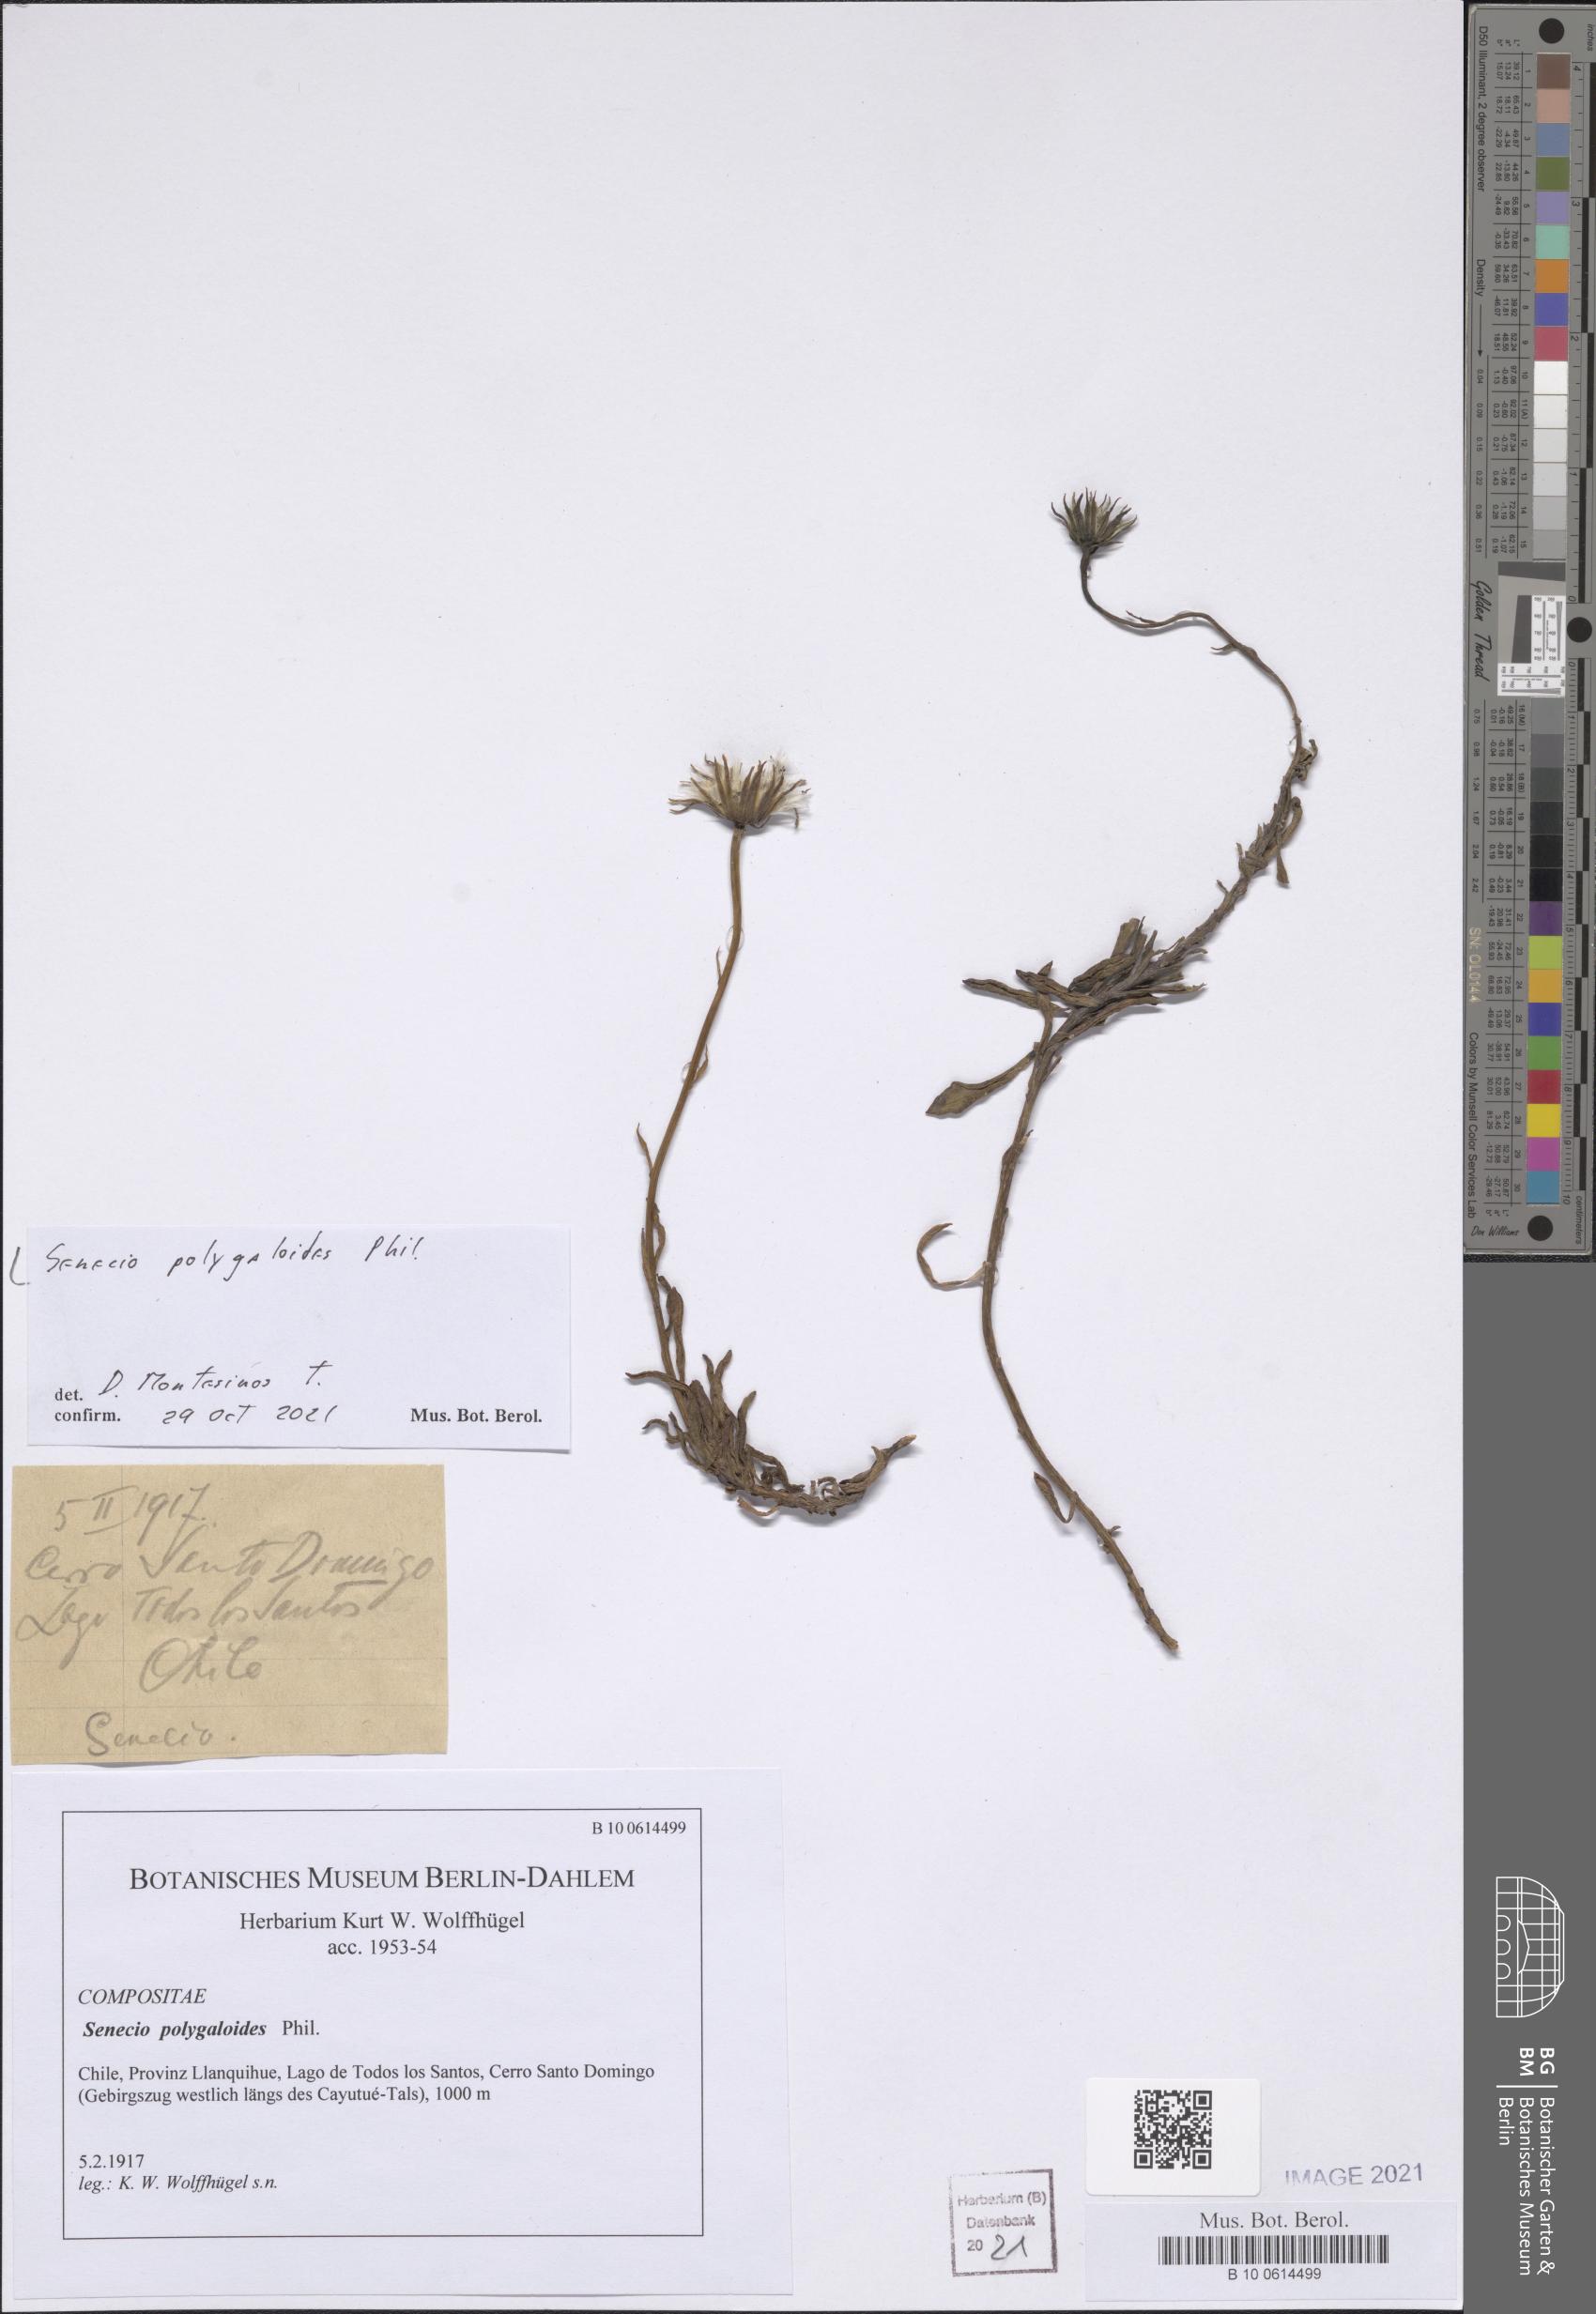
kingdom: Plantae
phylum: Tracheophyta
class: Magnoliopsida
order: Asterales
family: Asteraceae
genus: Senecio
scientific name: Senecio polygaloides
